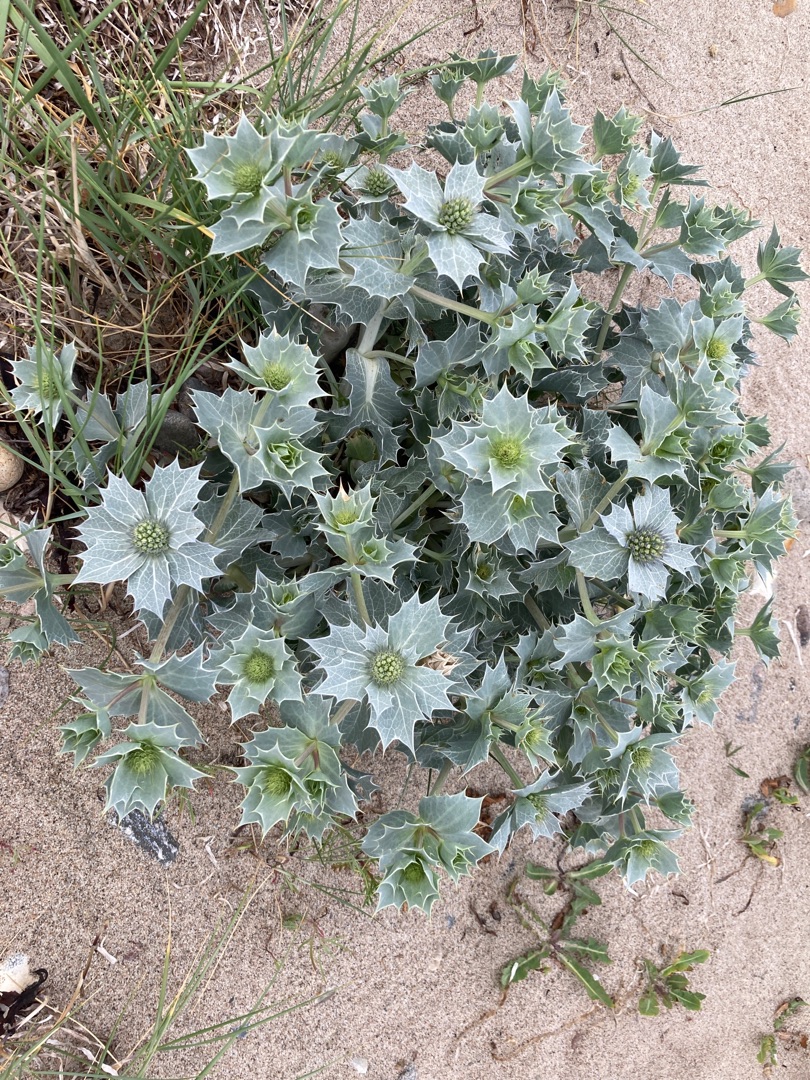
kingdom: Plantae
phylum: Tracheophyta
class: Magnoliopsida
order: Apiales
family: Apiaceae
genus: Eryngium
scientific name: Eryngium maritimum
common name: Strand-mandstro
